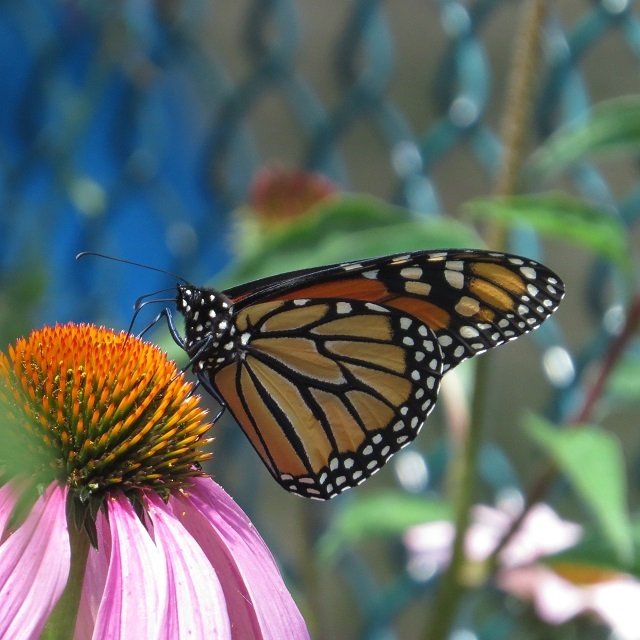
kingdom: Animalia
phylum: Arthropoda
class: Insecta
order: Lepidoptera
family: Nymphalidae
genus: Danaus
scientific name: Danaus plexippus
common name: Monarch
